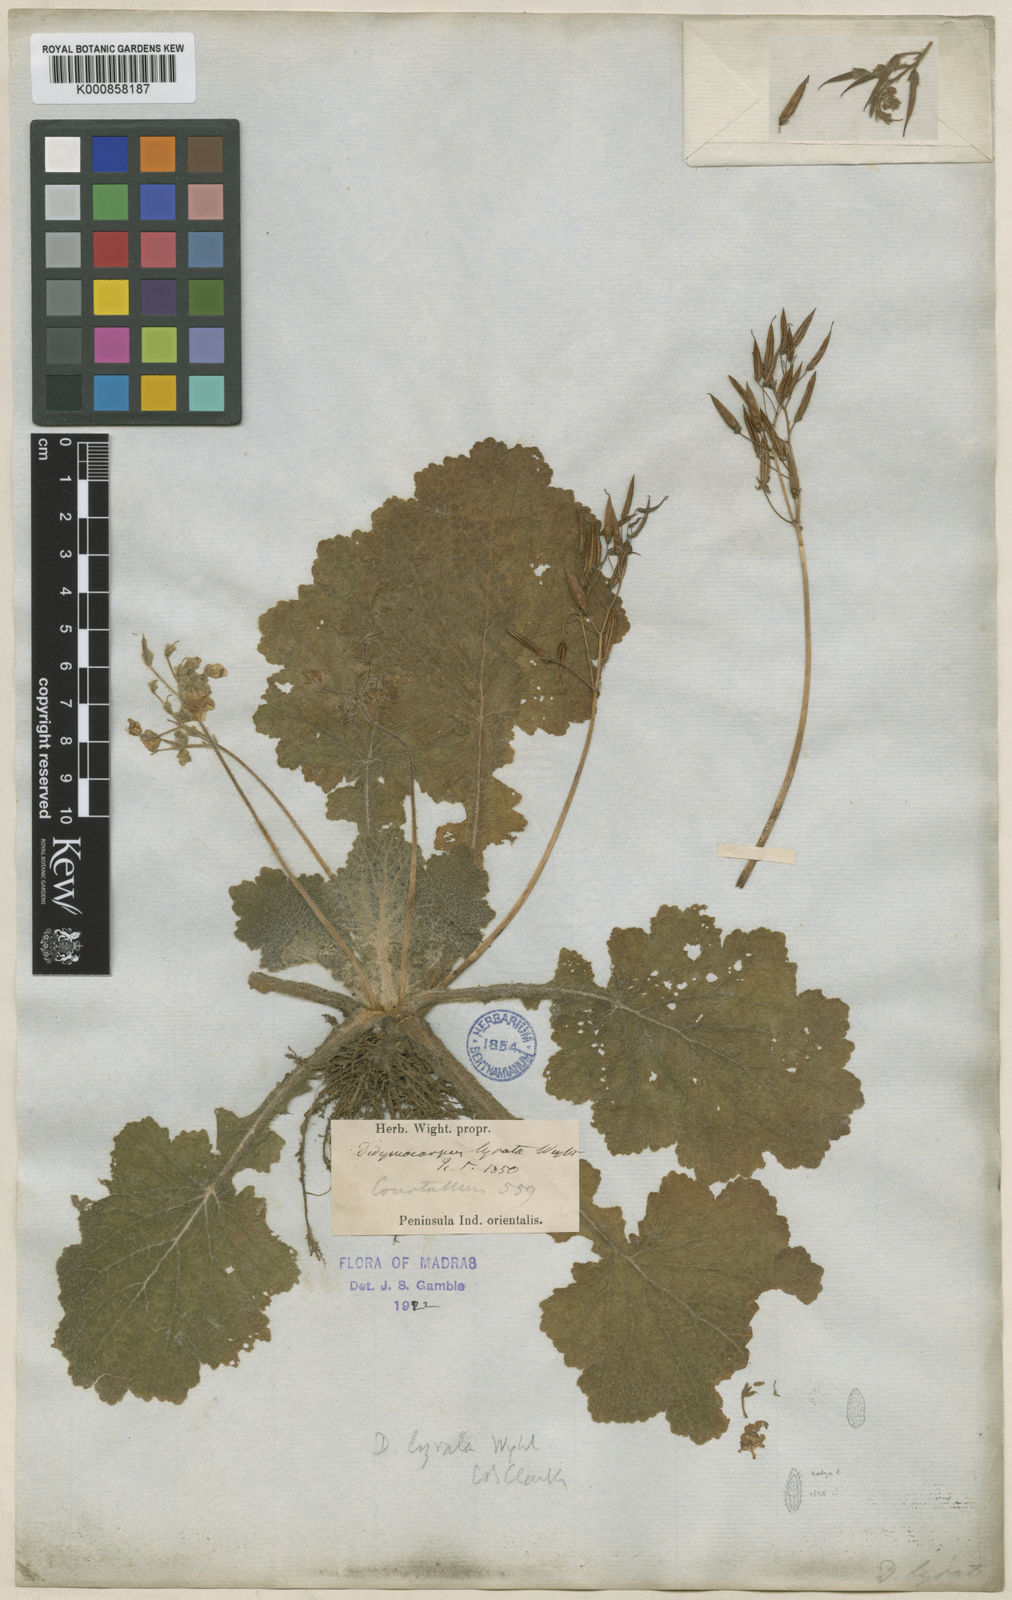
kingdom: Plantae
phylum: Tracheophyta
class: Magnoliopsida
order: Lamiales
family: Gesneriaceae
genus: Henckelia
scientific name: Henckelia lyrata
